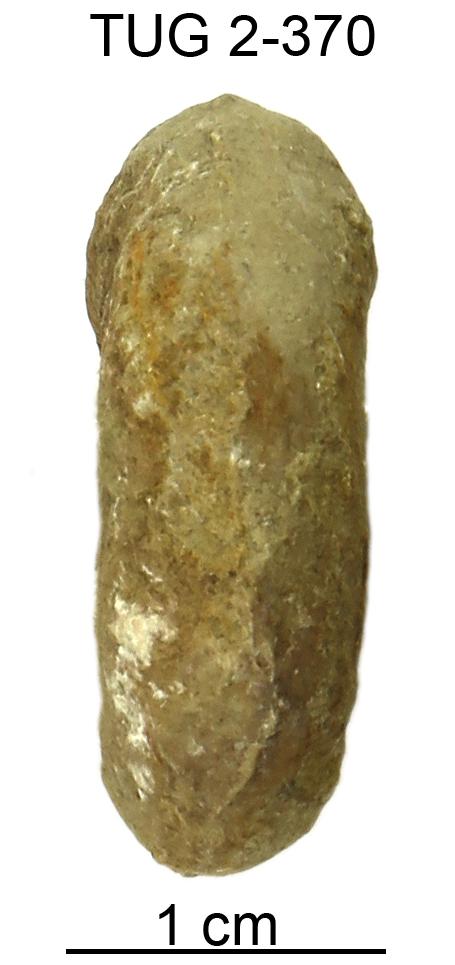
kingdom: Animalia
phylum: Mollusca
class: Gastropoda
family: Bucaniidae
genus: Megalomphala
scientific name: Megalomphala cycloides
